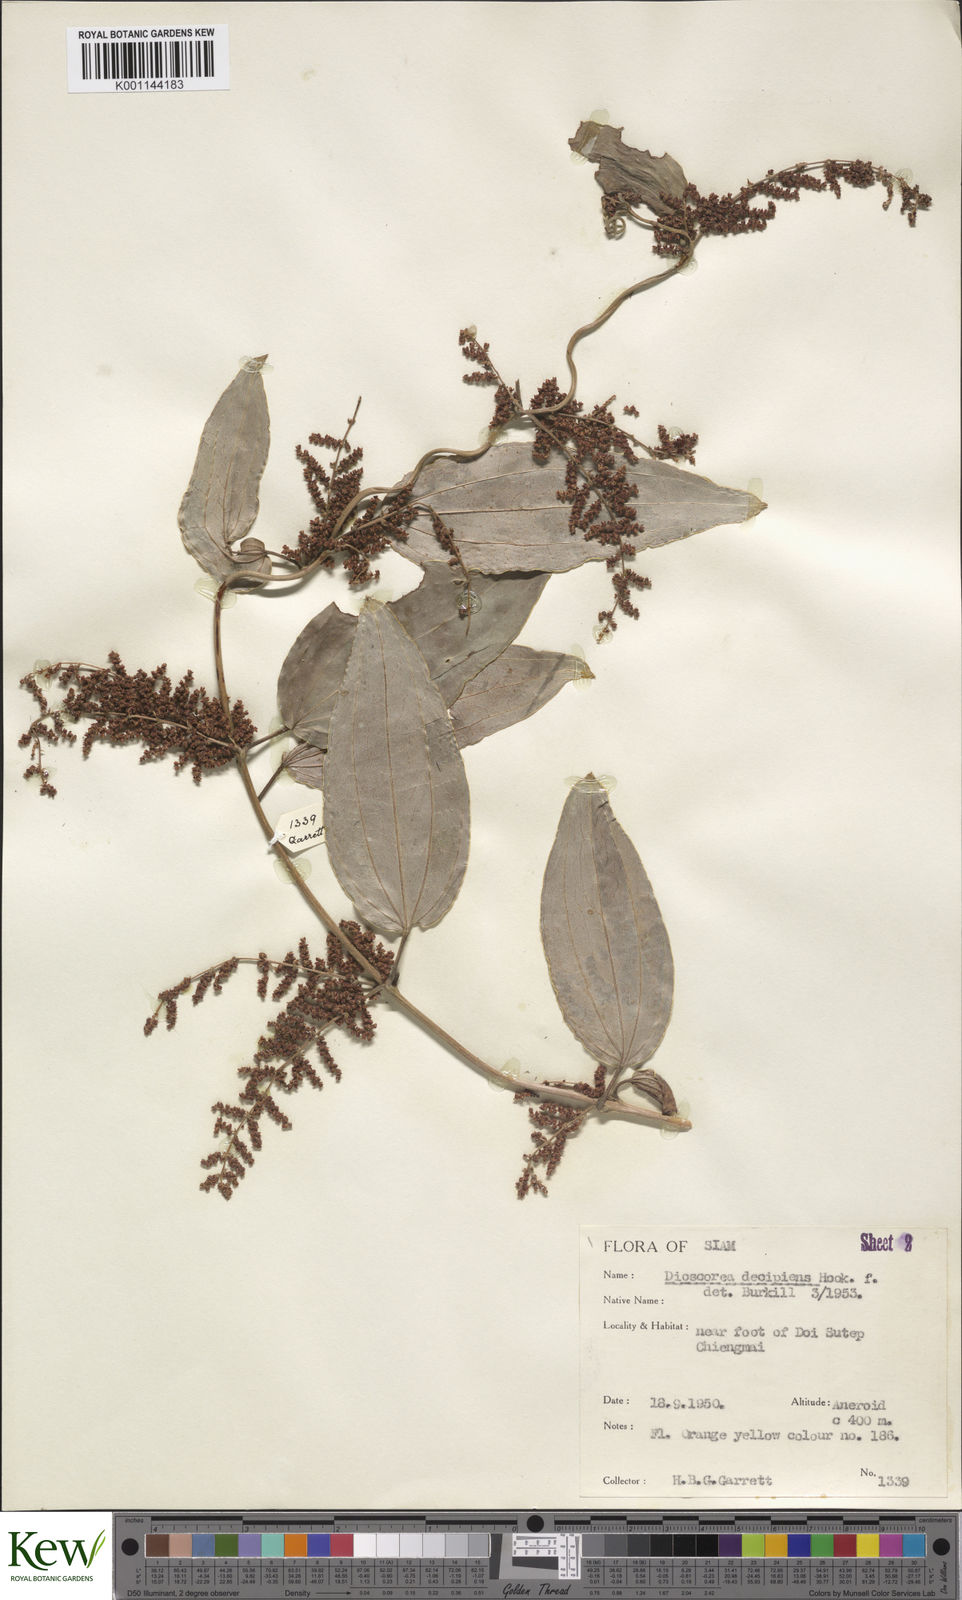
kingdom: Plantae
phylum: Tracheophyta
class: Liliopsida
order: Dioscoreales
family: Dioscoreaceae
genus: Dioscorea
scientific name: Dioscorea decipiens
